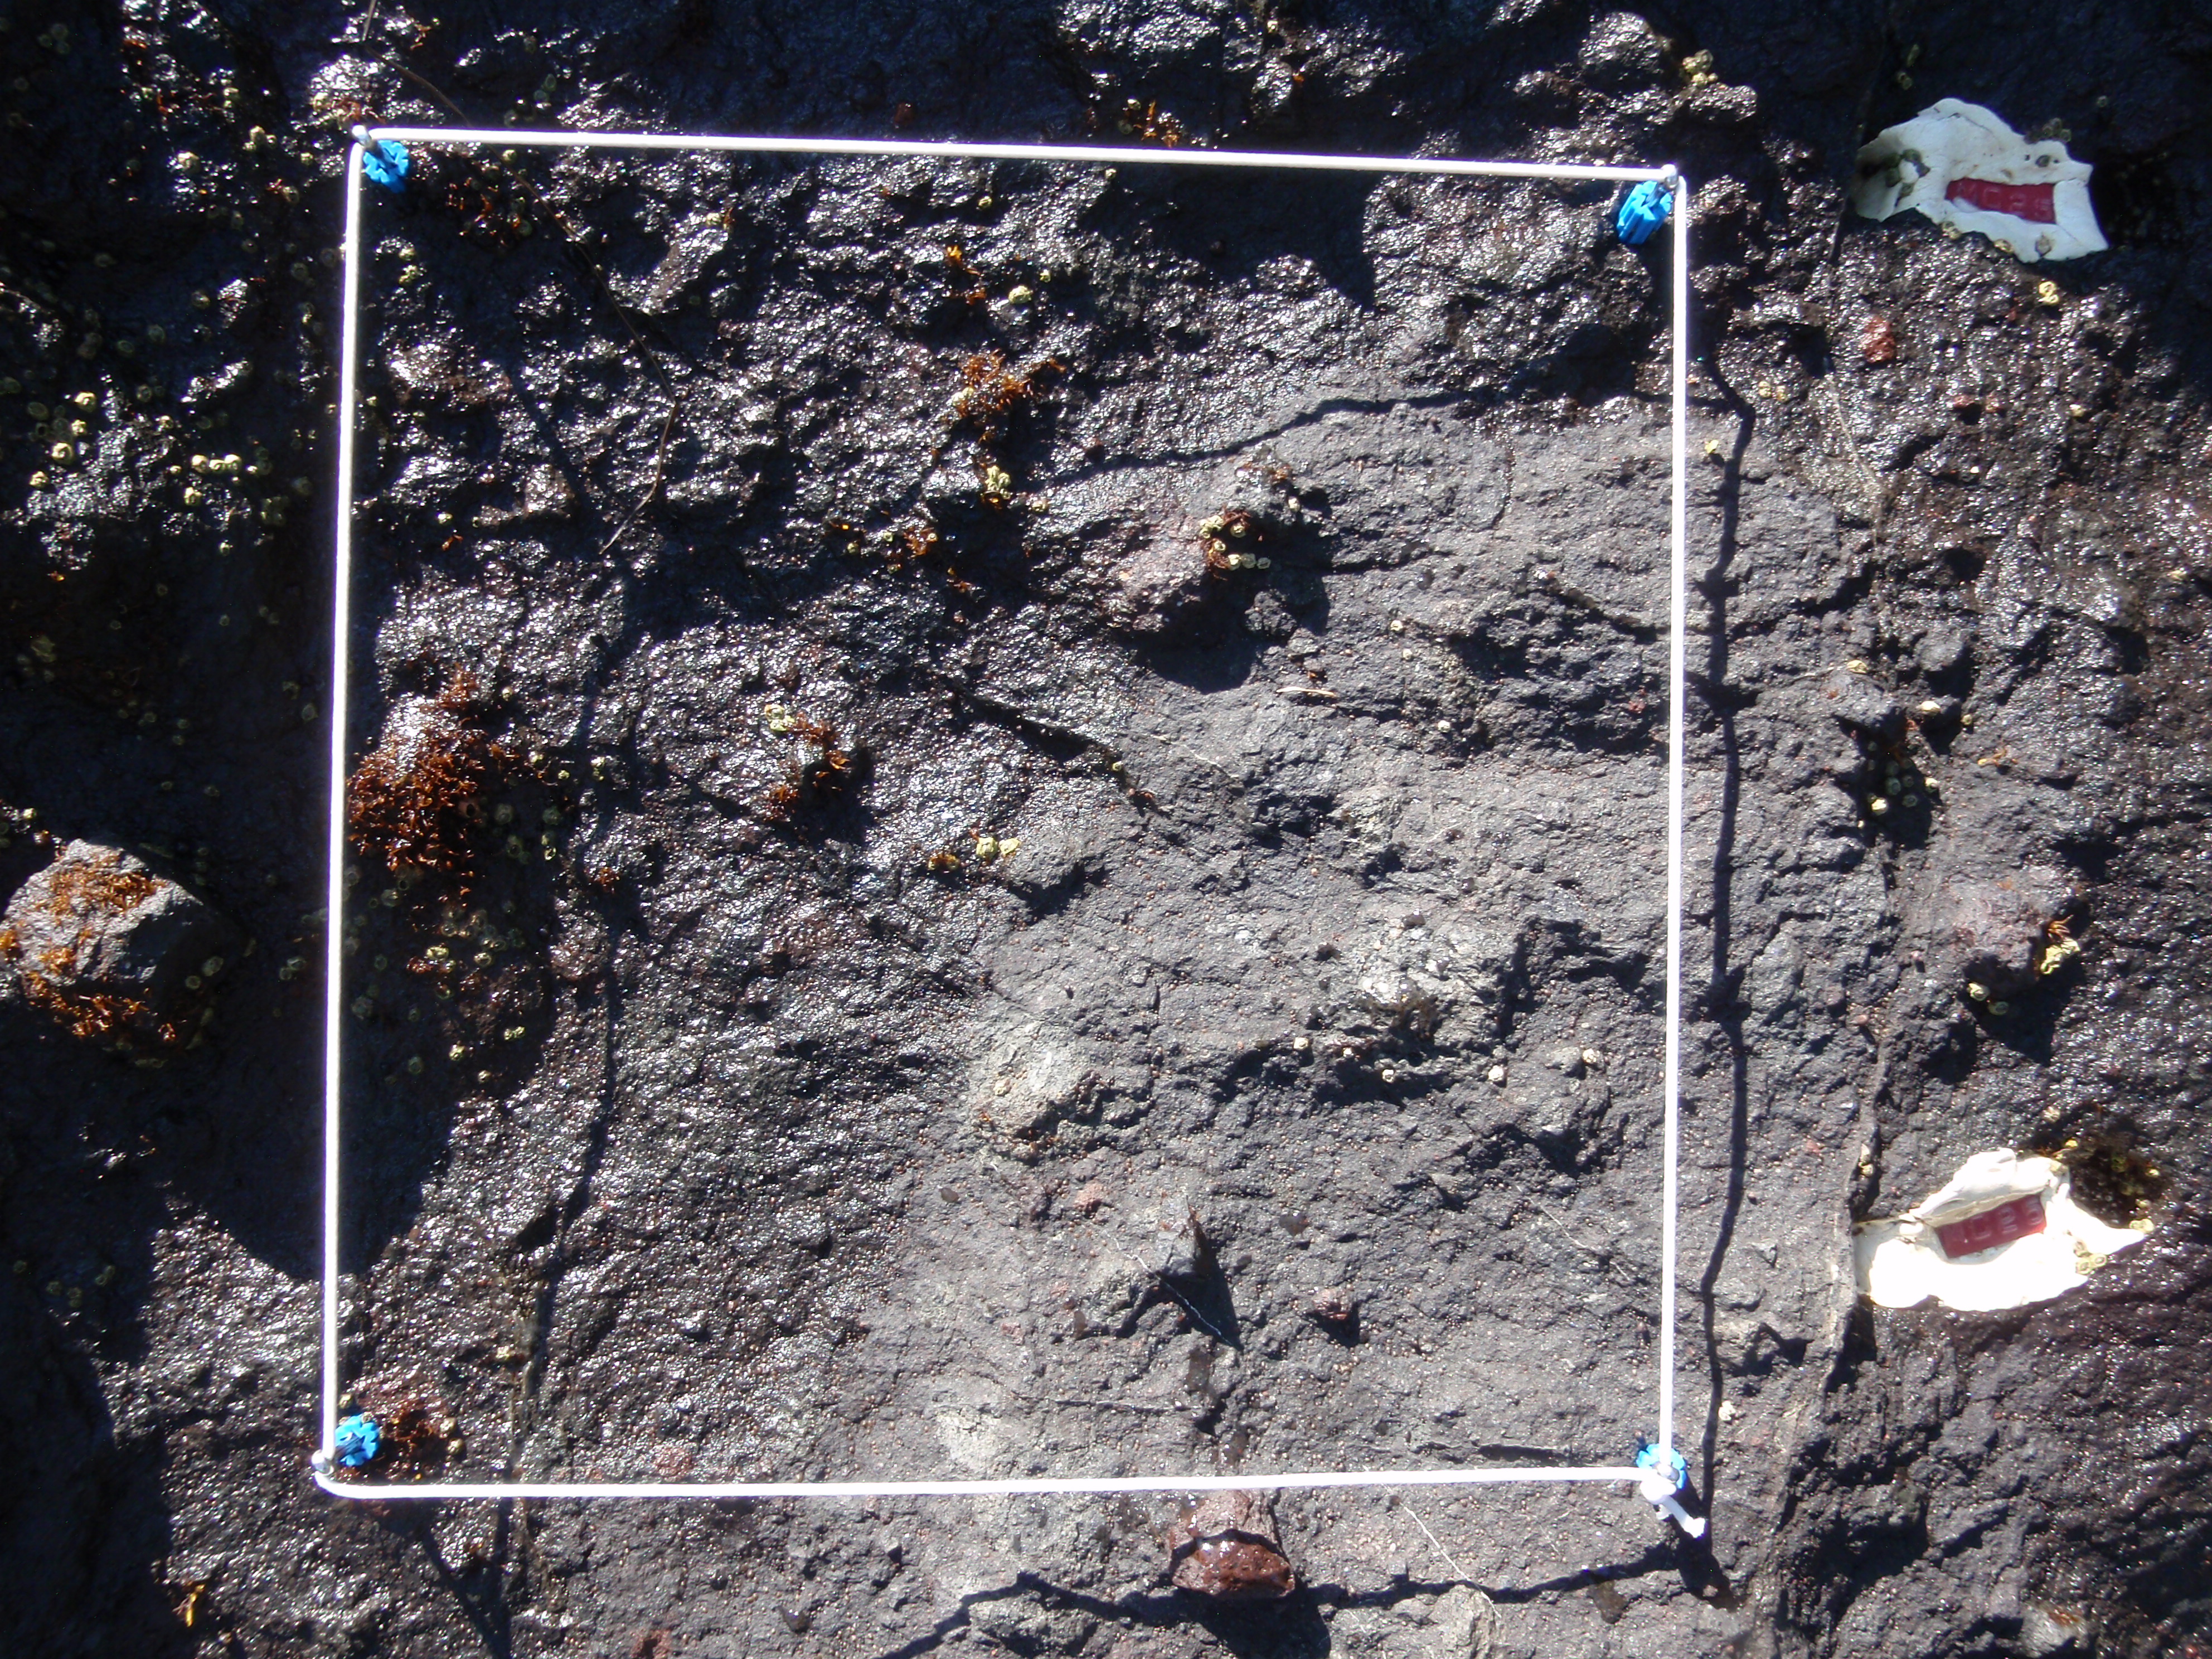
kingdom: Plantae
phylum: Rhodophyta
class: Florideophyceae
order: Gigartinales
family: Endocladiaceae
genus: Gloiopeltis
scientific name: Gloiopeltis furcata
